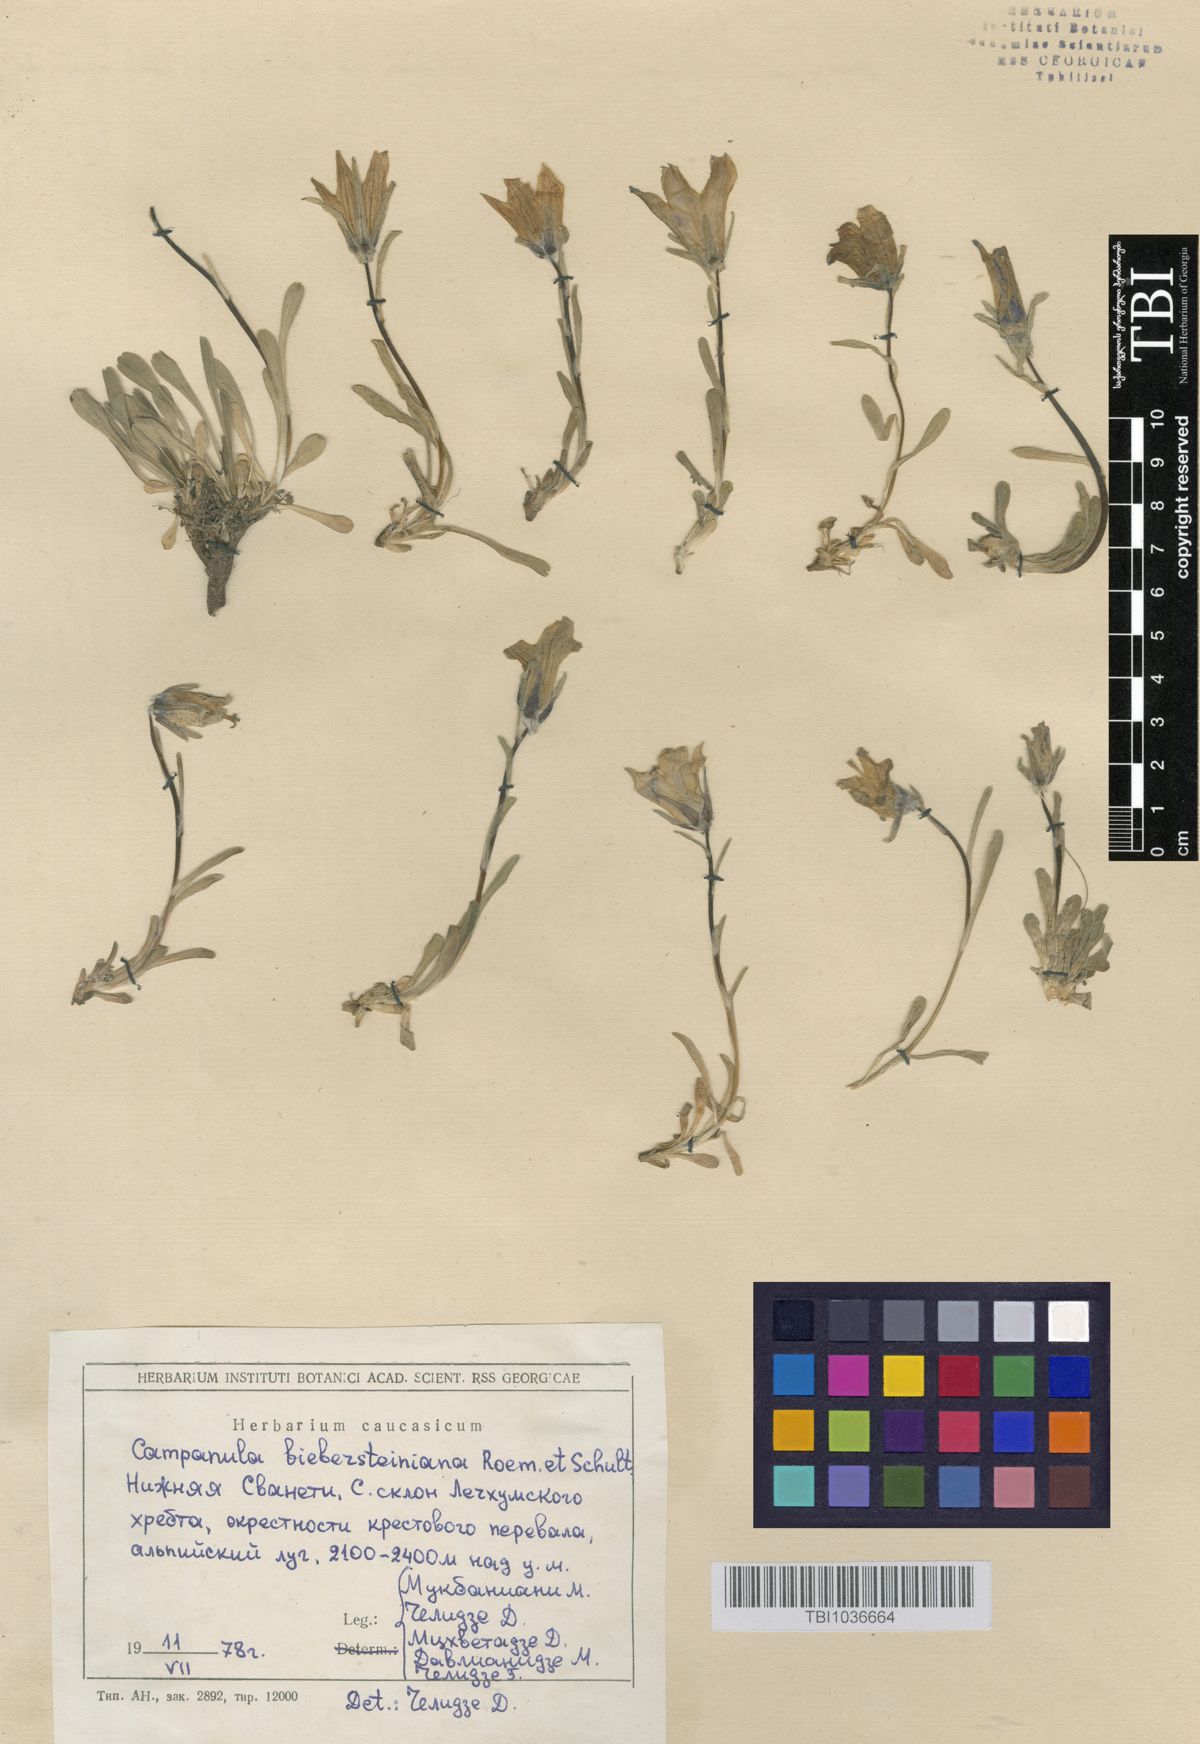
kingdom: Plantae
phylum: Tracheophyta
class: Magnoliopsida
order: Asterales
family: Campanulaceae
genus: Campanula
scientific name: Campanula tridentata
